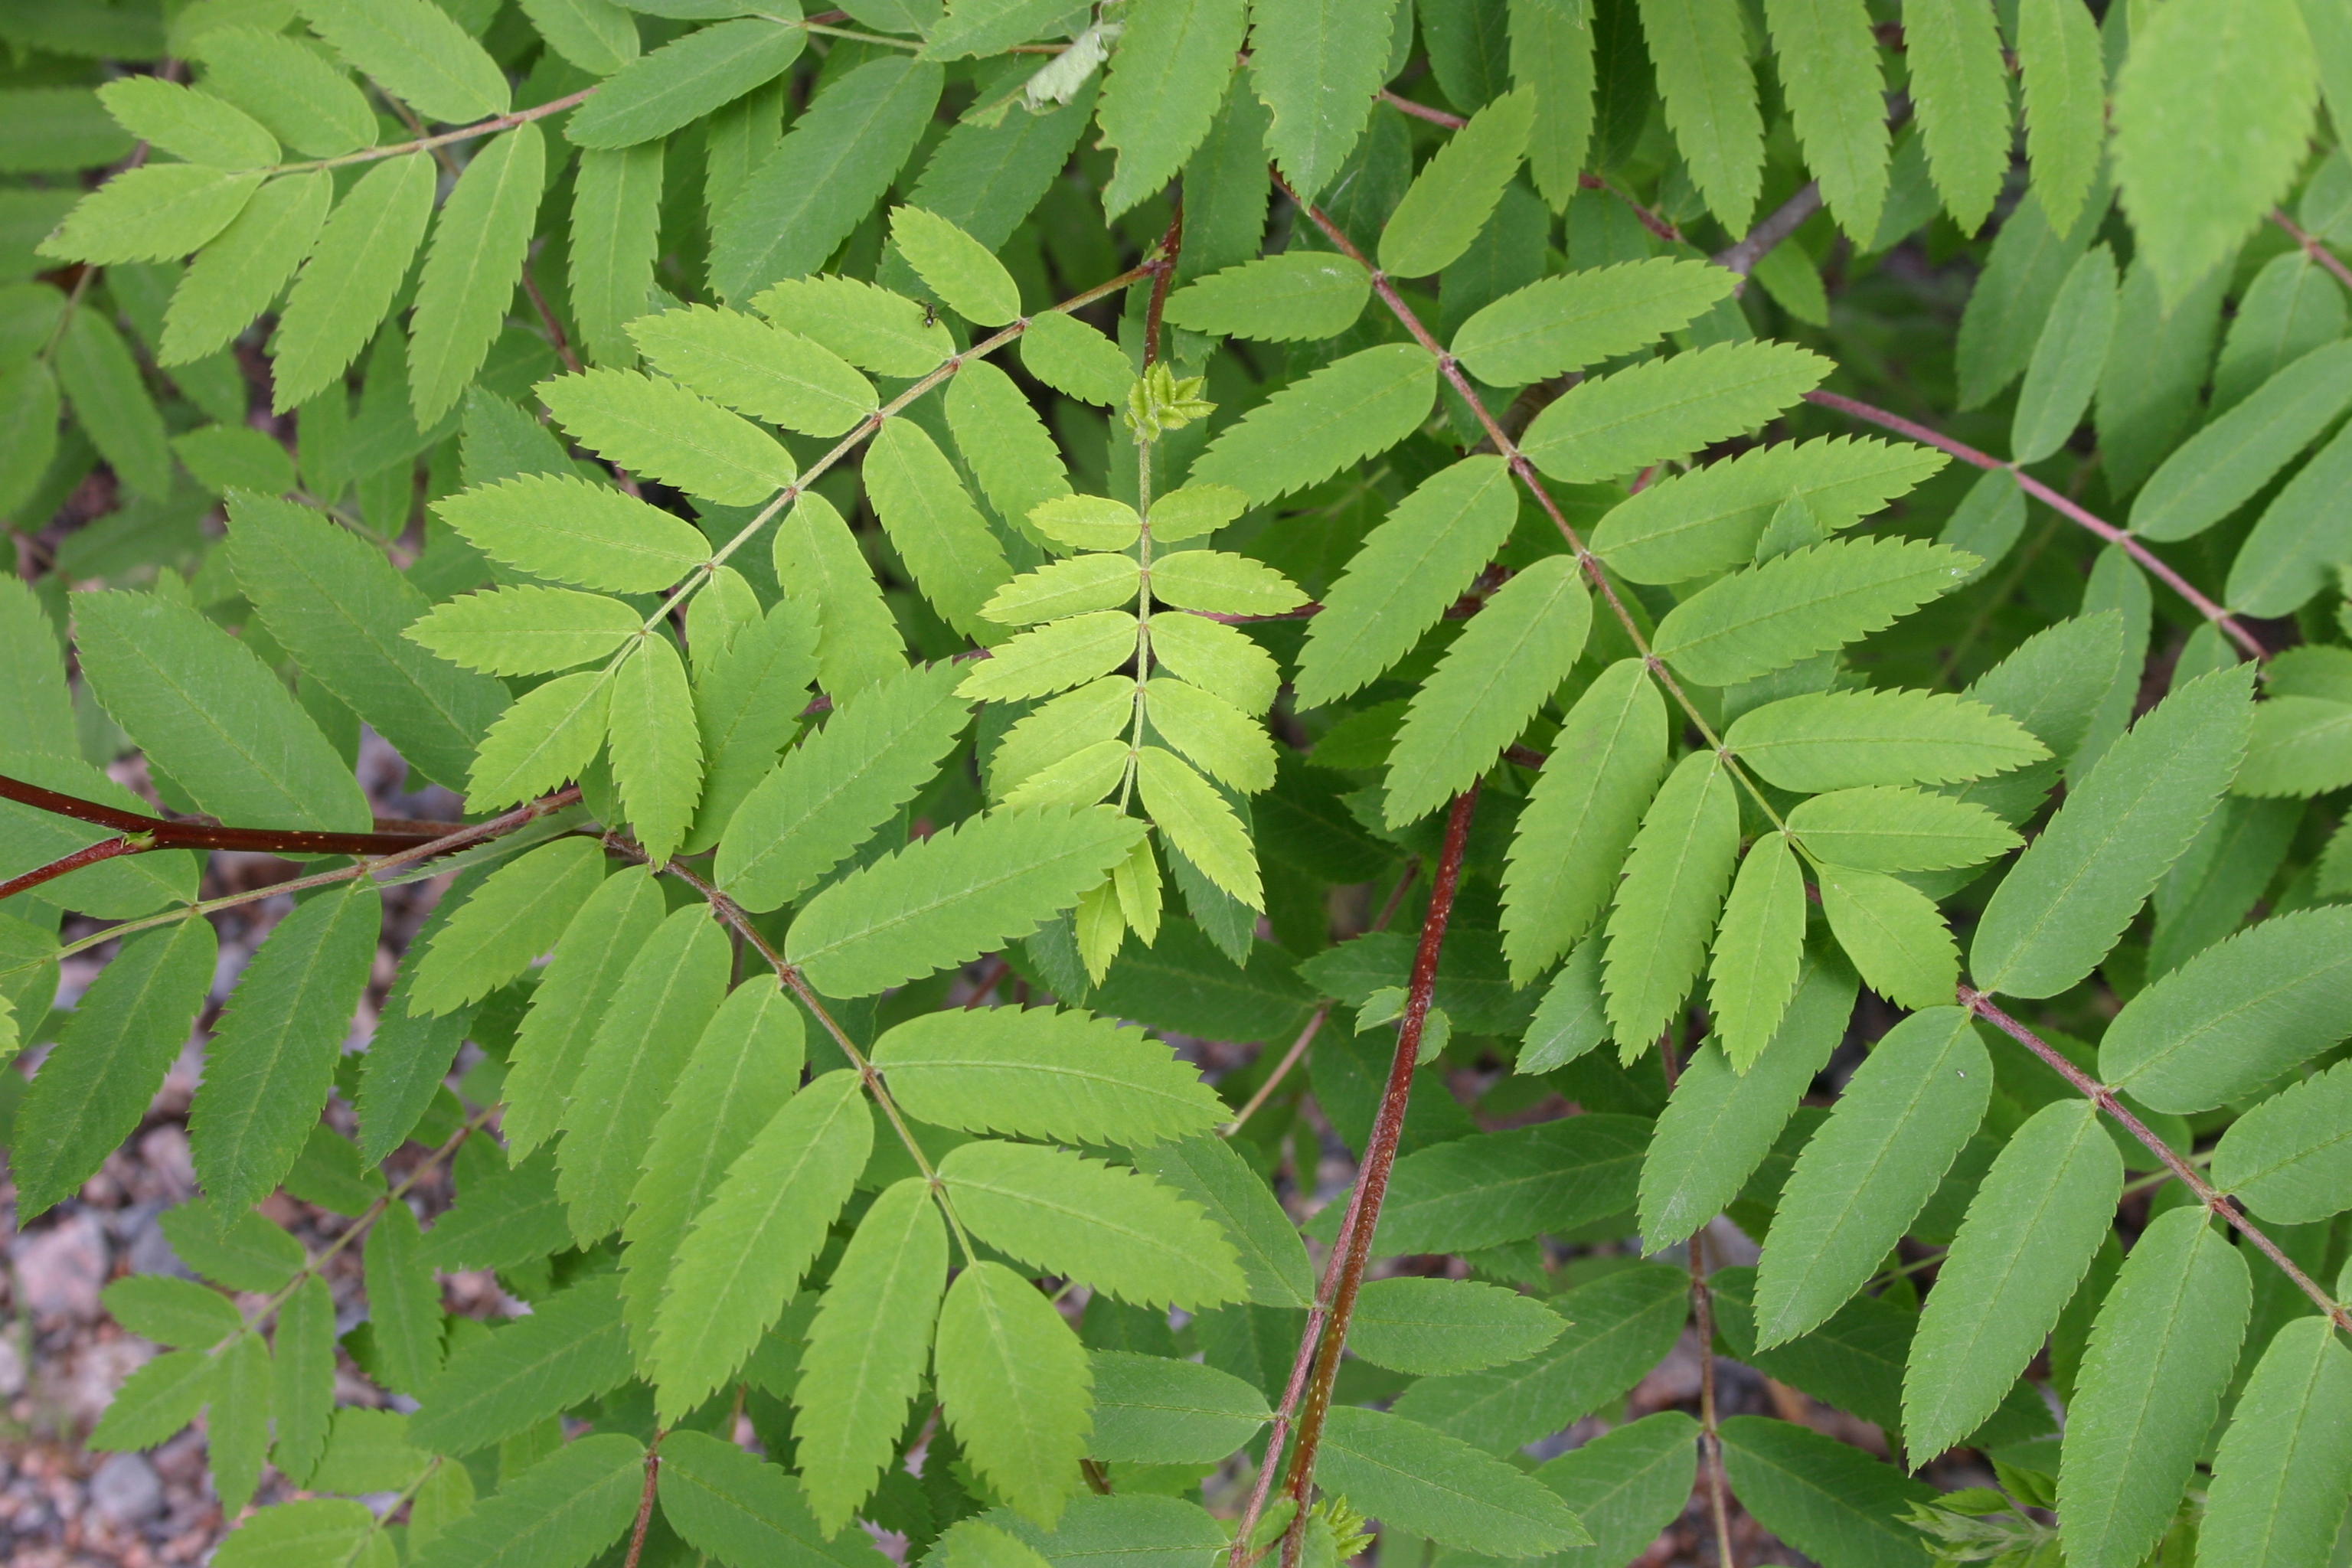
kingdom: Plantae
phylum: Tracheophyta
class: Magnoliopsida
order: Rosales
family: Rosaceae
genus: Sorbus
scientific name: Sorbus aucuparia
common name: Rowan
